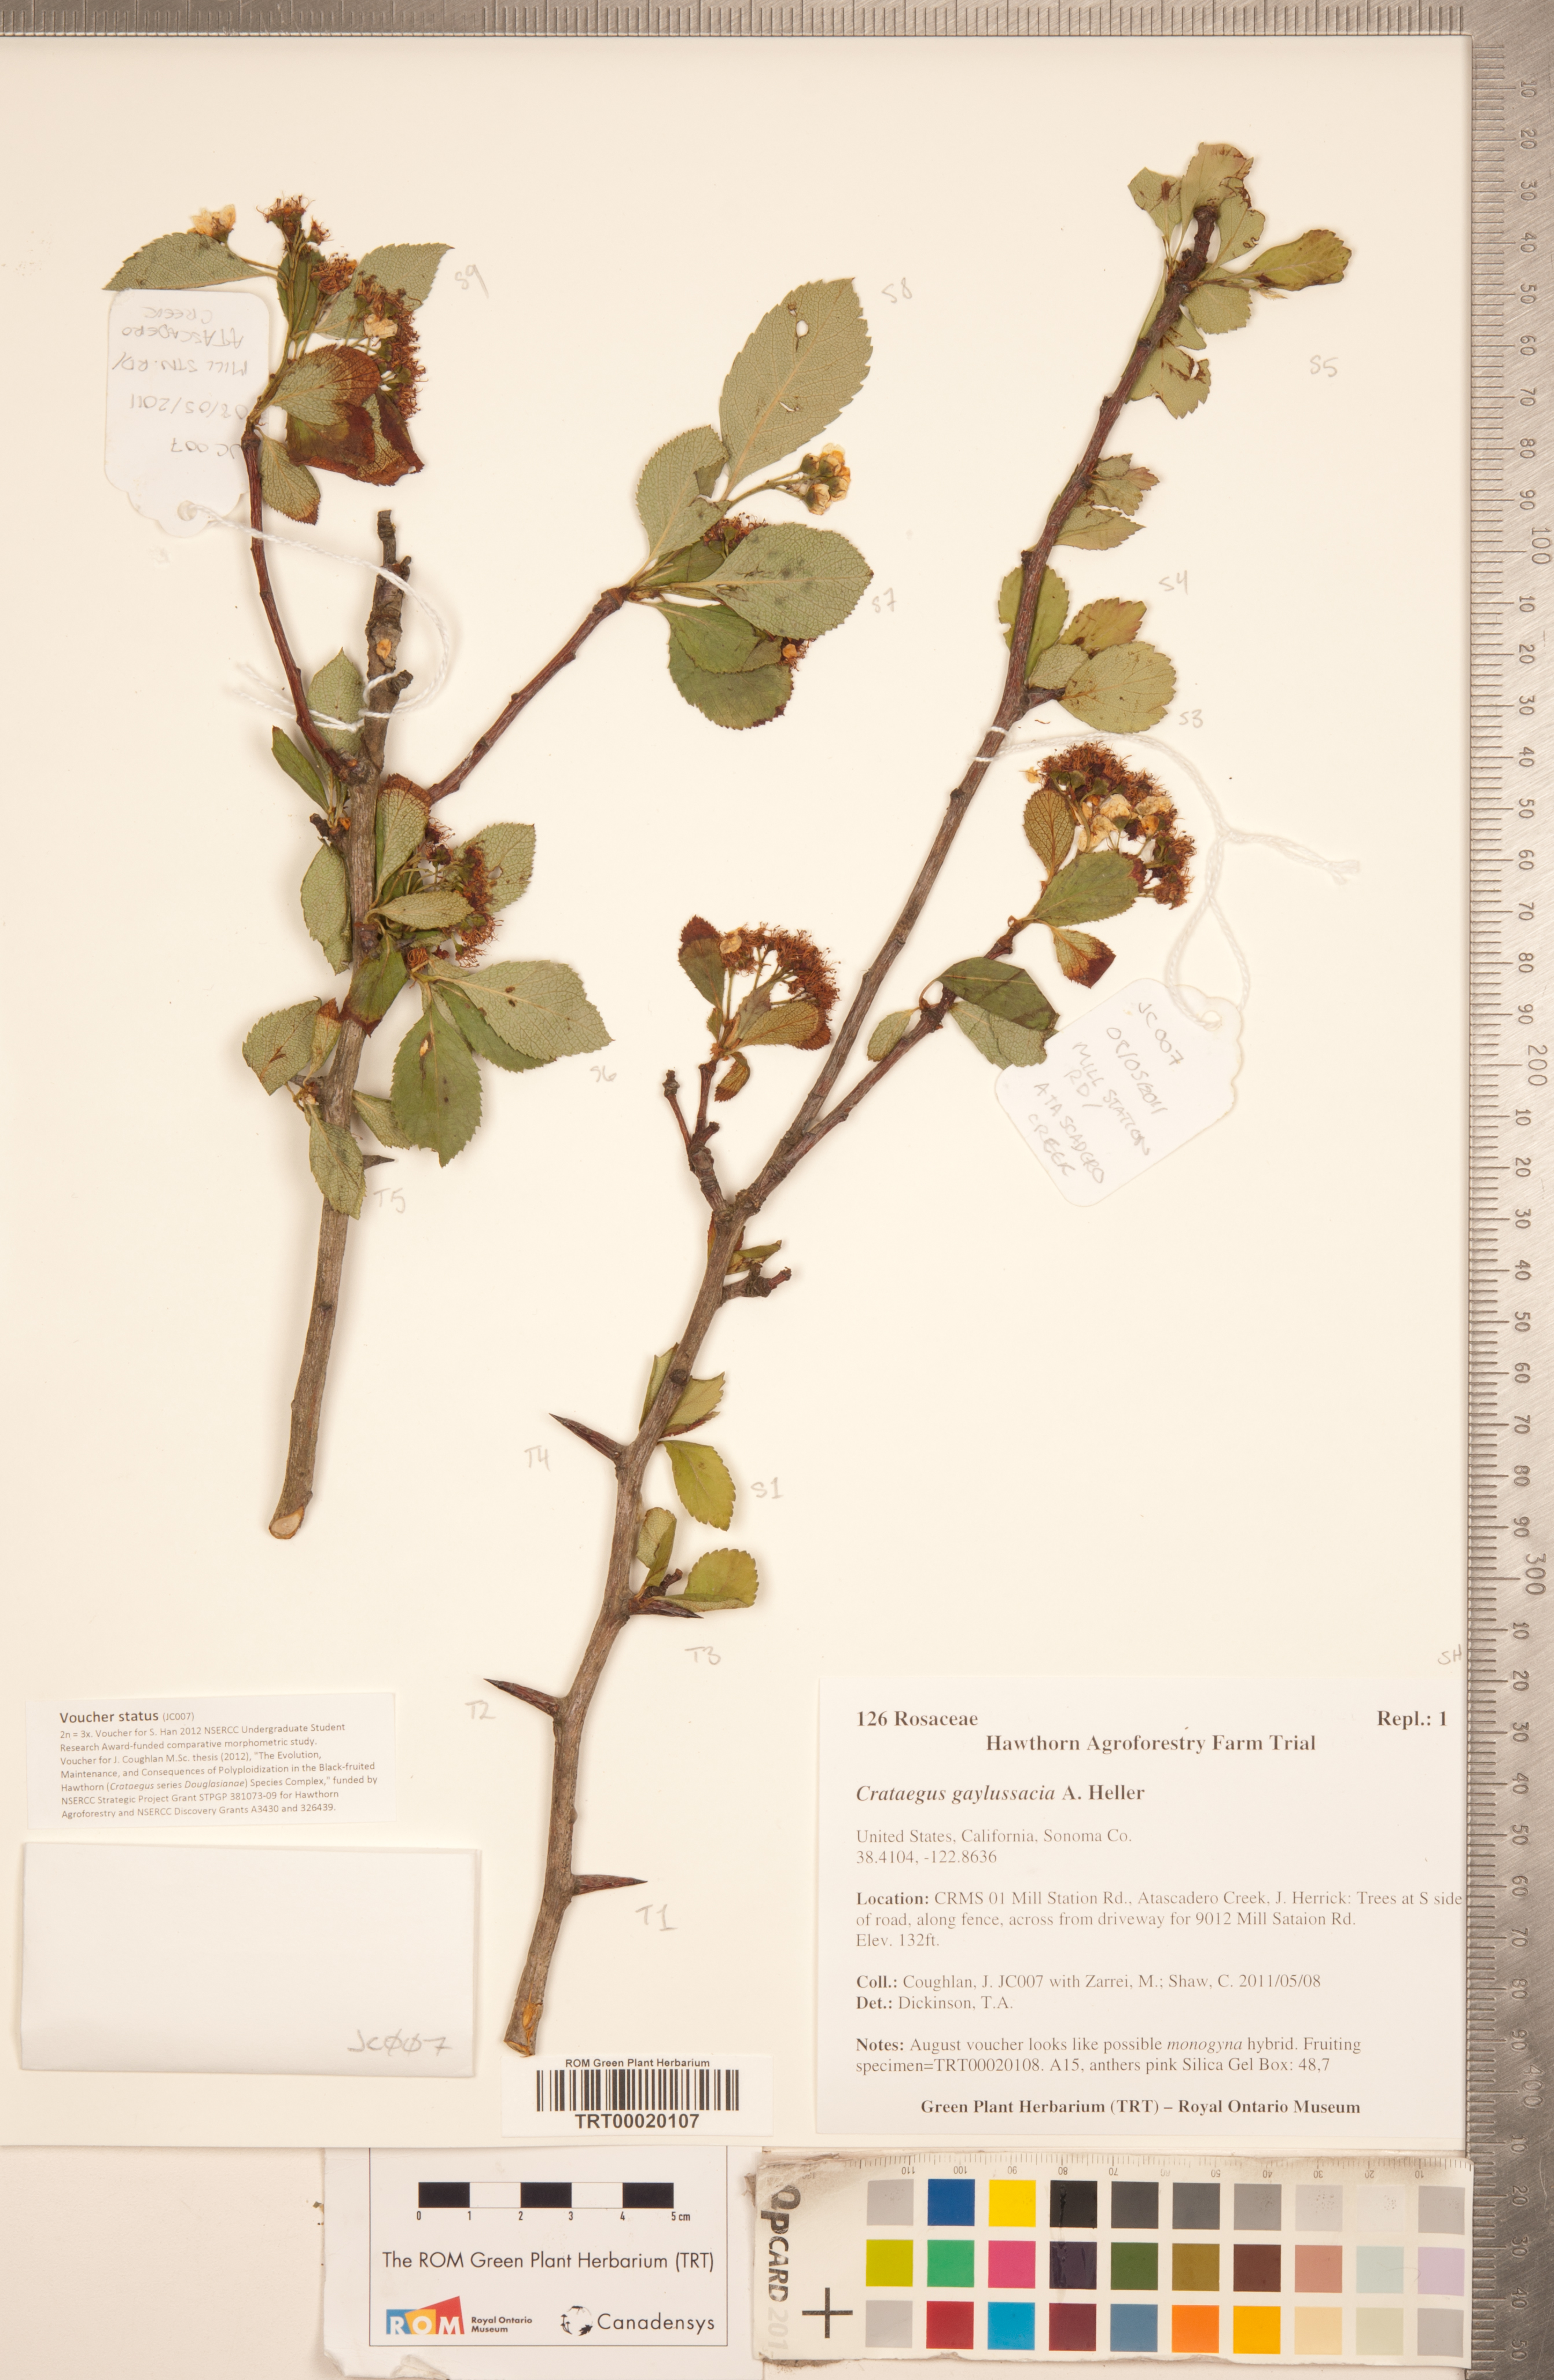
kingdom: Plantae
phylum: Tracheophyta
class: Magnoliopsida
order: Rosales
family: Rosaceae
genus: Crataegus
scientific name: Crataegus gaylussacia
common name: Huckleberry hawthorn
